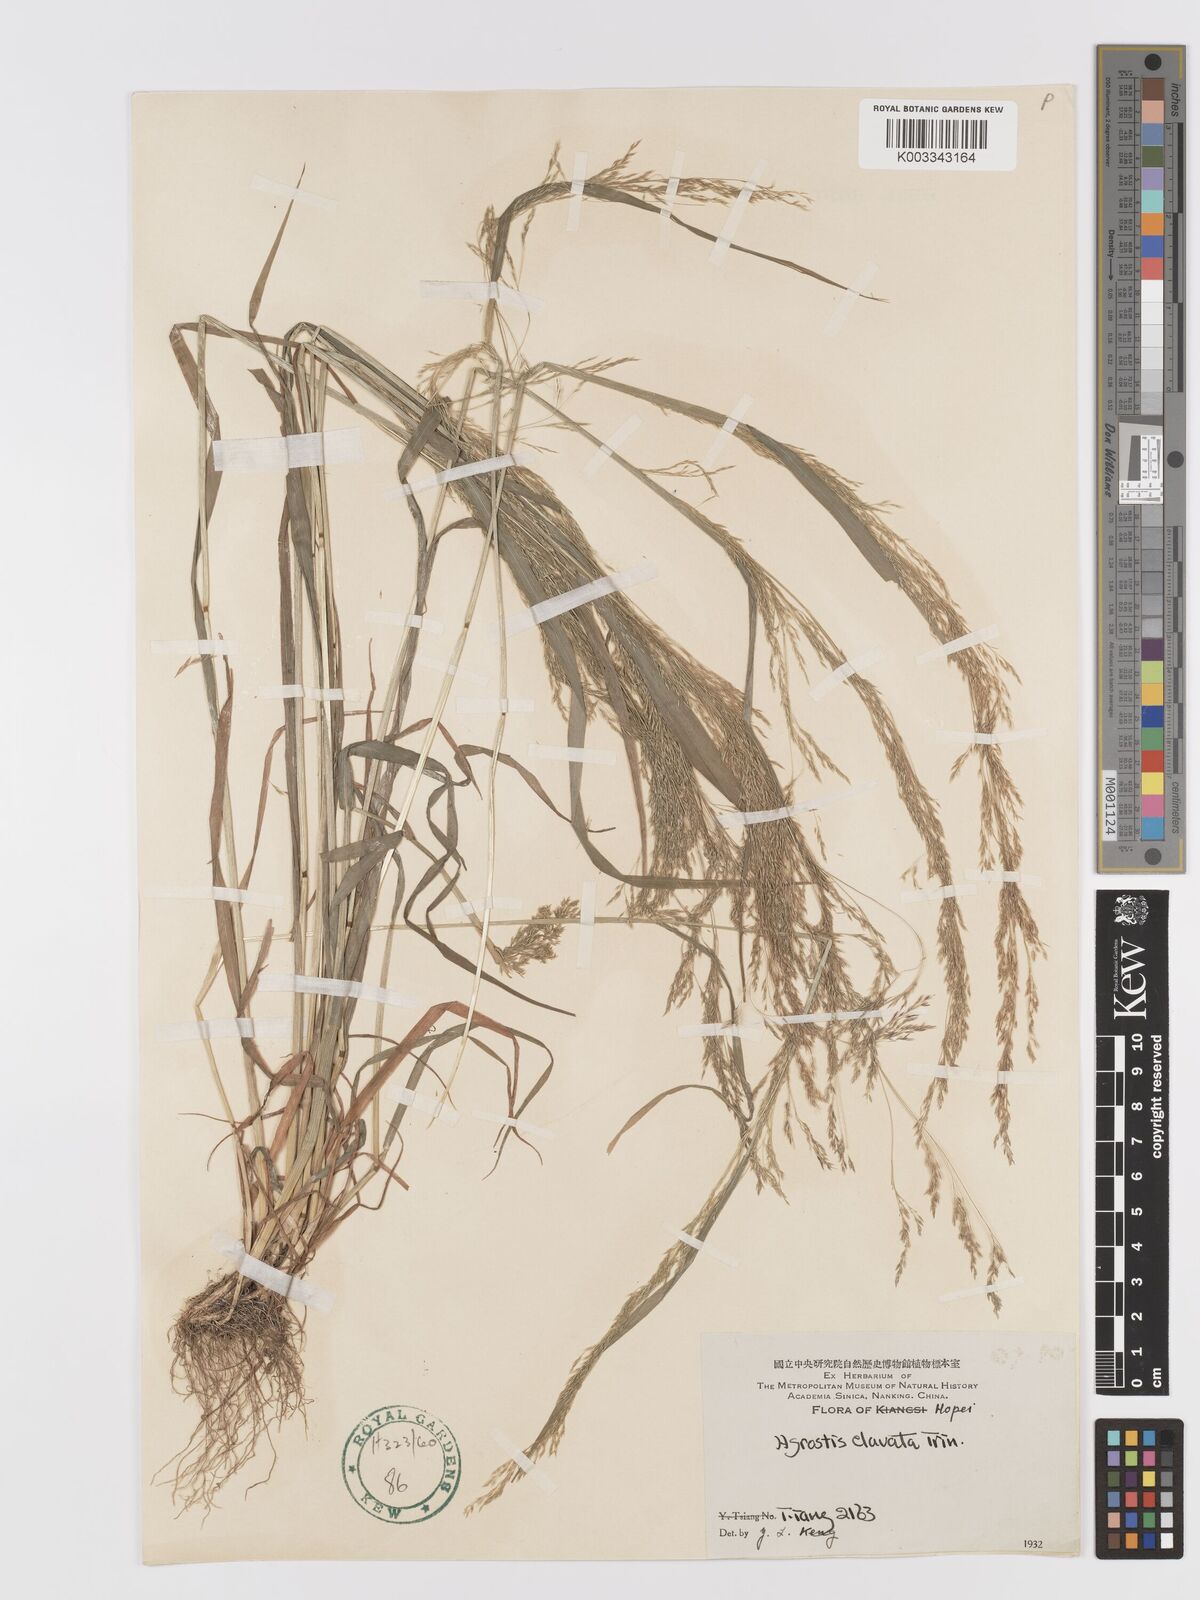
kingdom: Plantae
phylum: Tracheophyta
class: Liliopsida
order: Poales
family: Poaceae
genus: Agrostis
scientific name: Agrostis clavata
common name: Clavate bent
